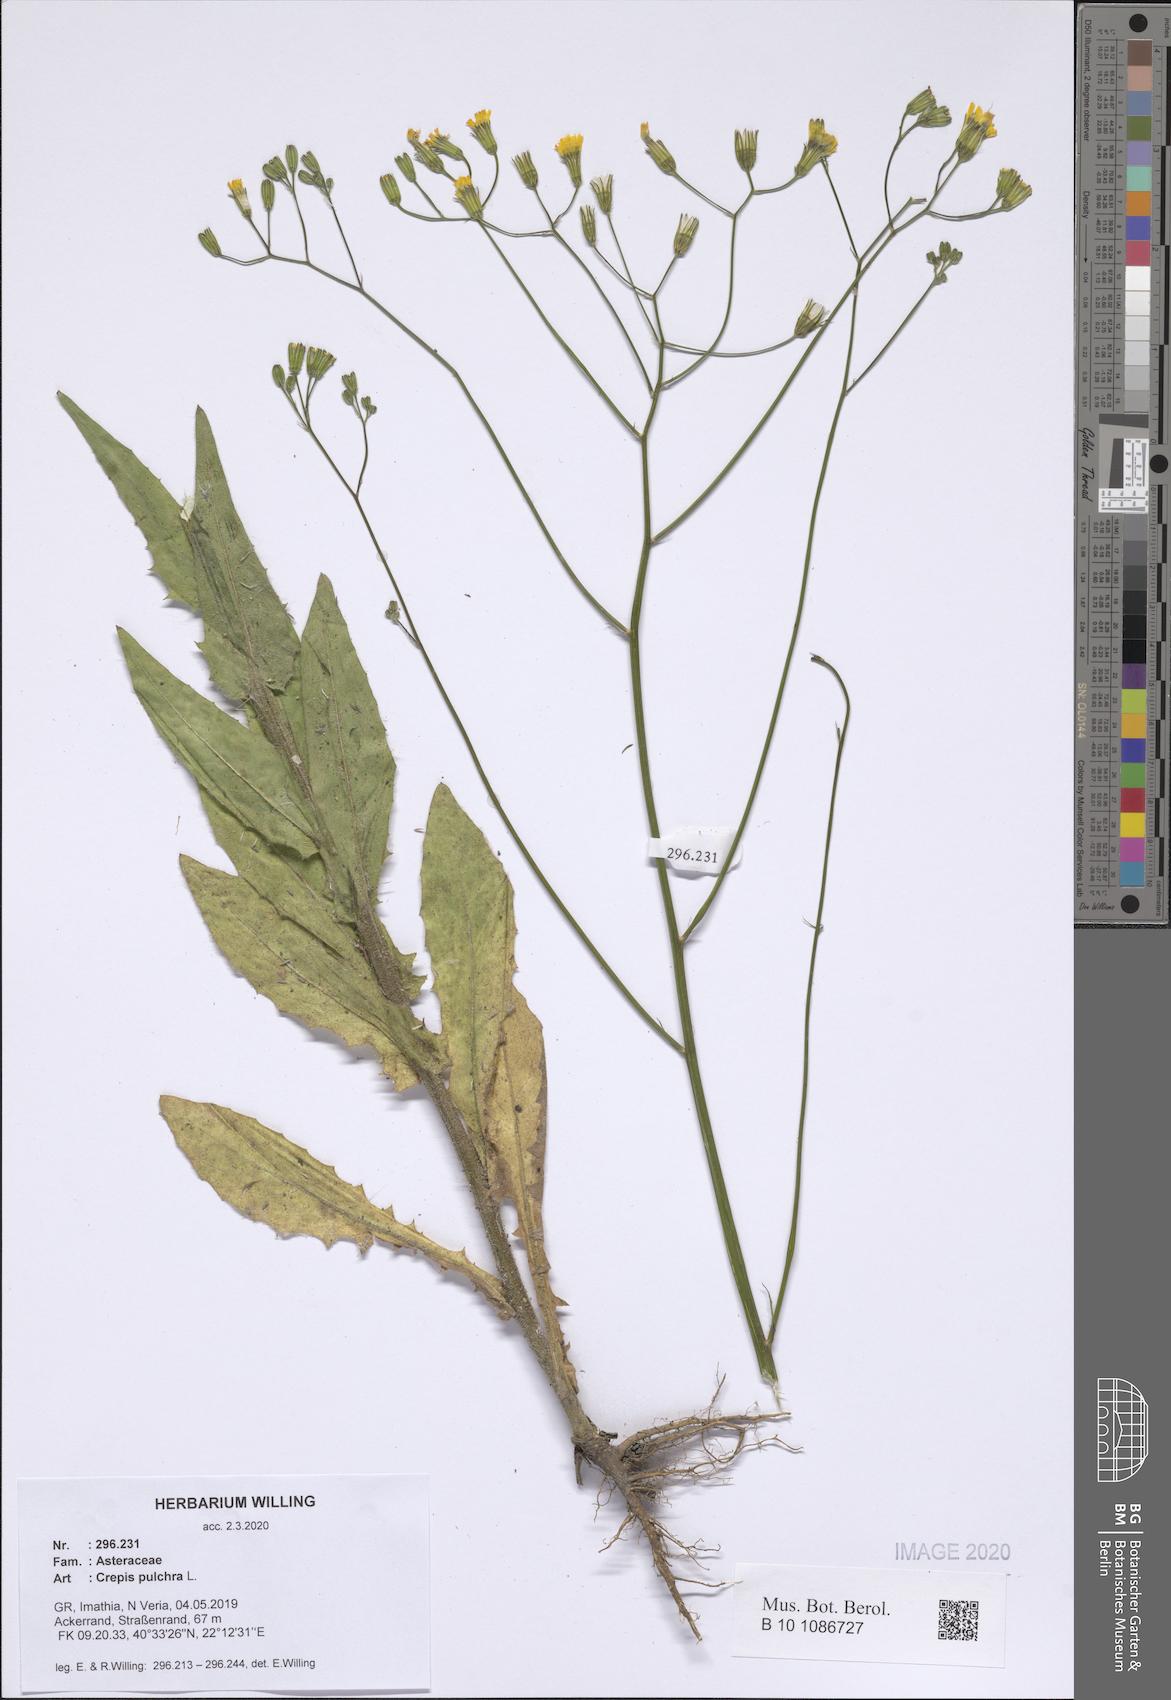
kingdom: Plantae
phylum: Tracheophyta
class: Magnoliopsida
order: Asterales
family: Asteraceae
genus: Crepis
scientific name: Crepis pulchra
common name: Hawk's-beard
